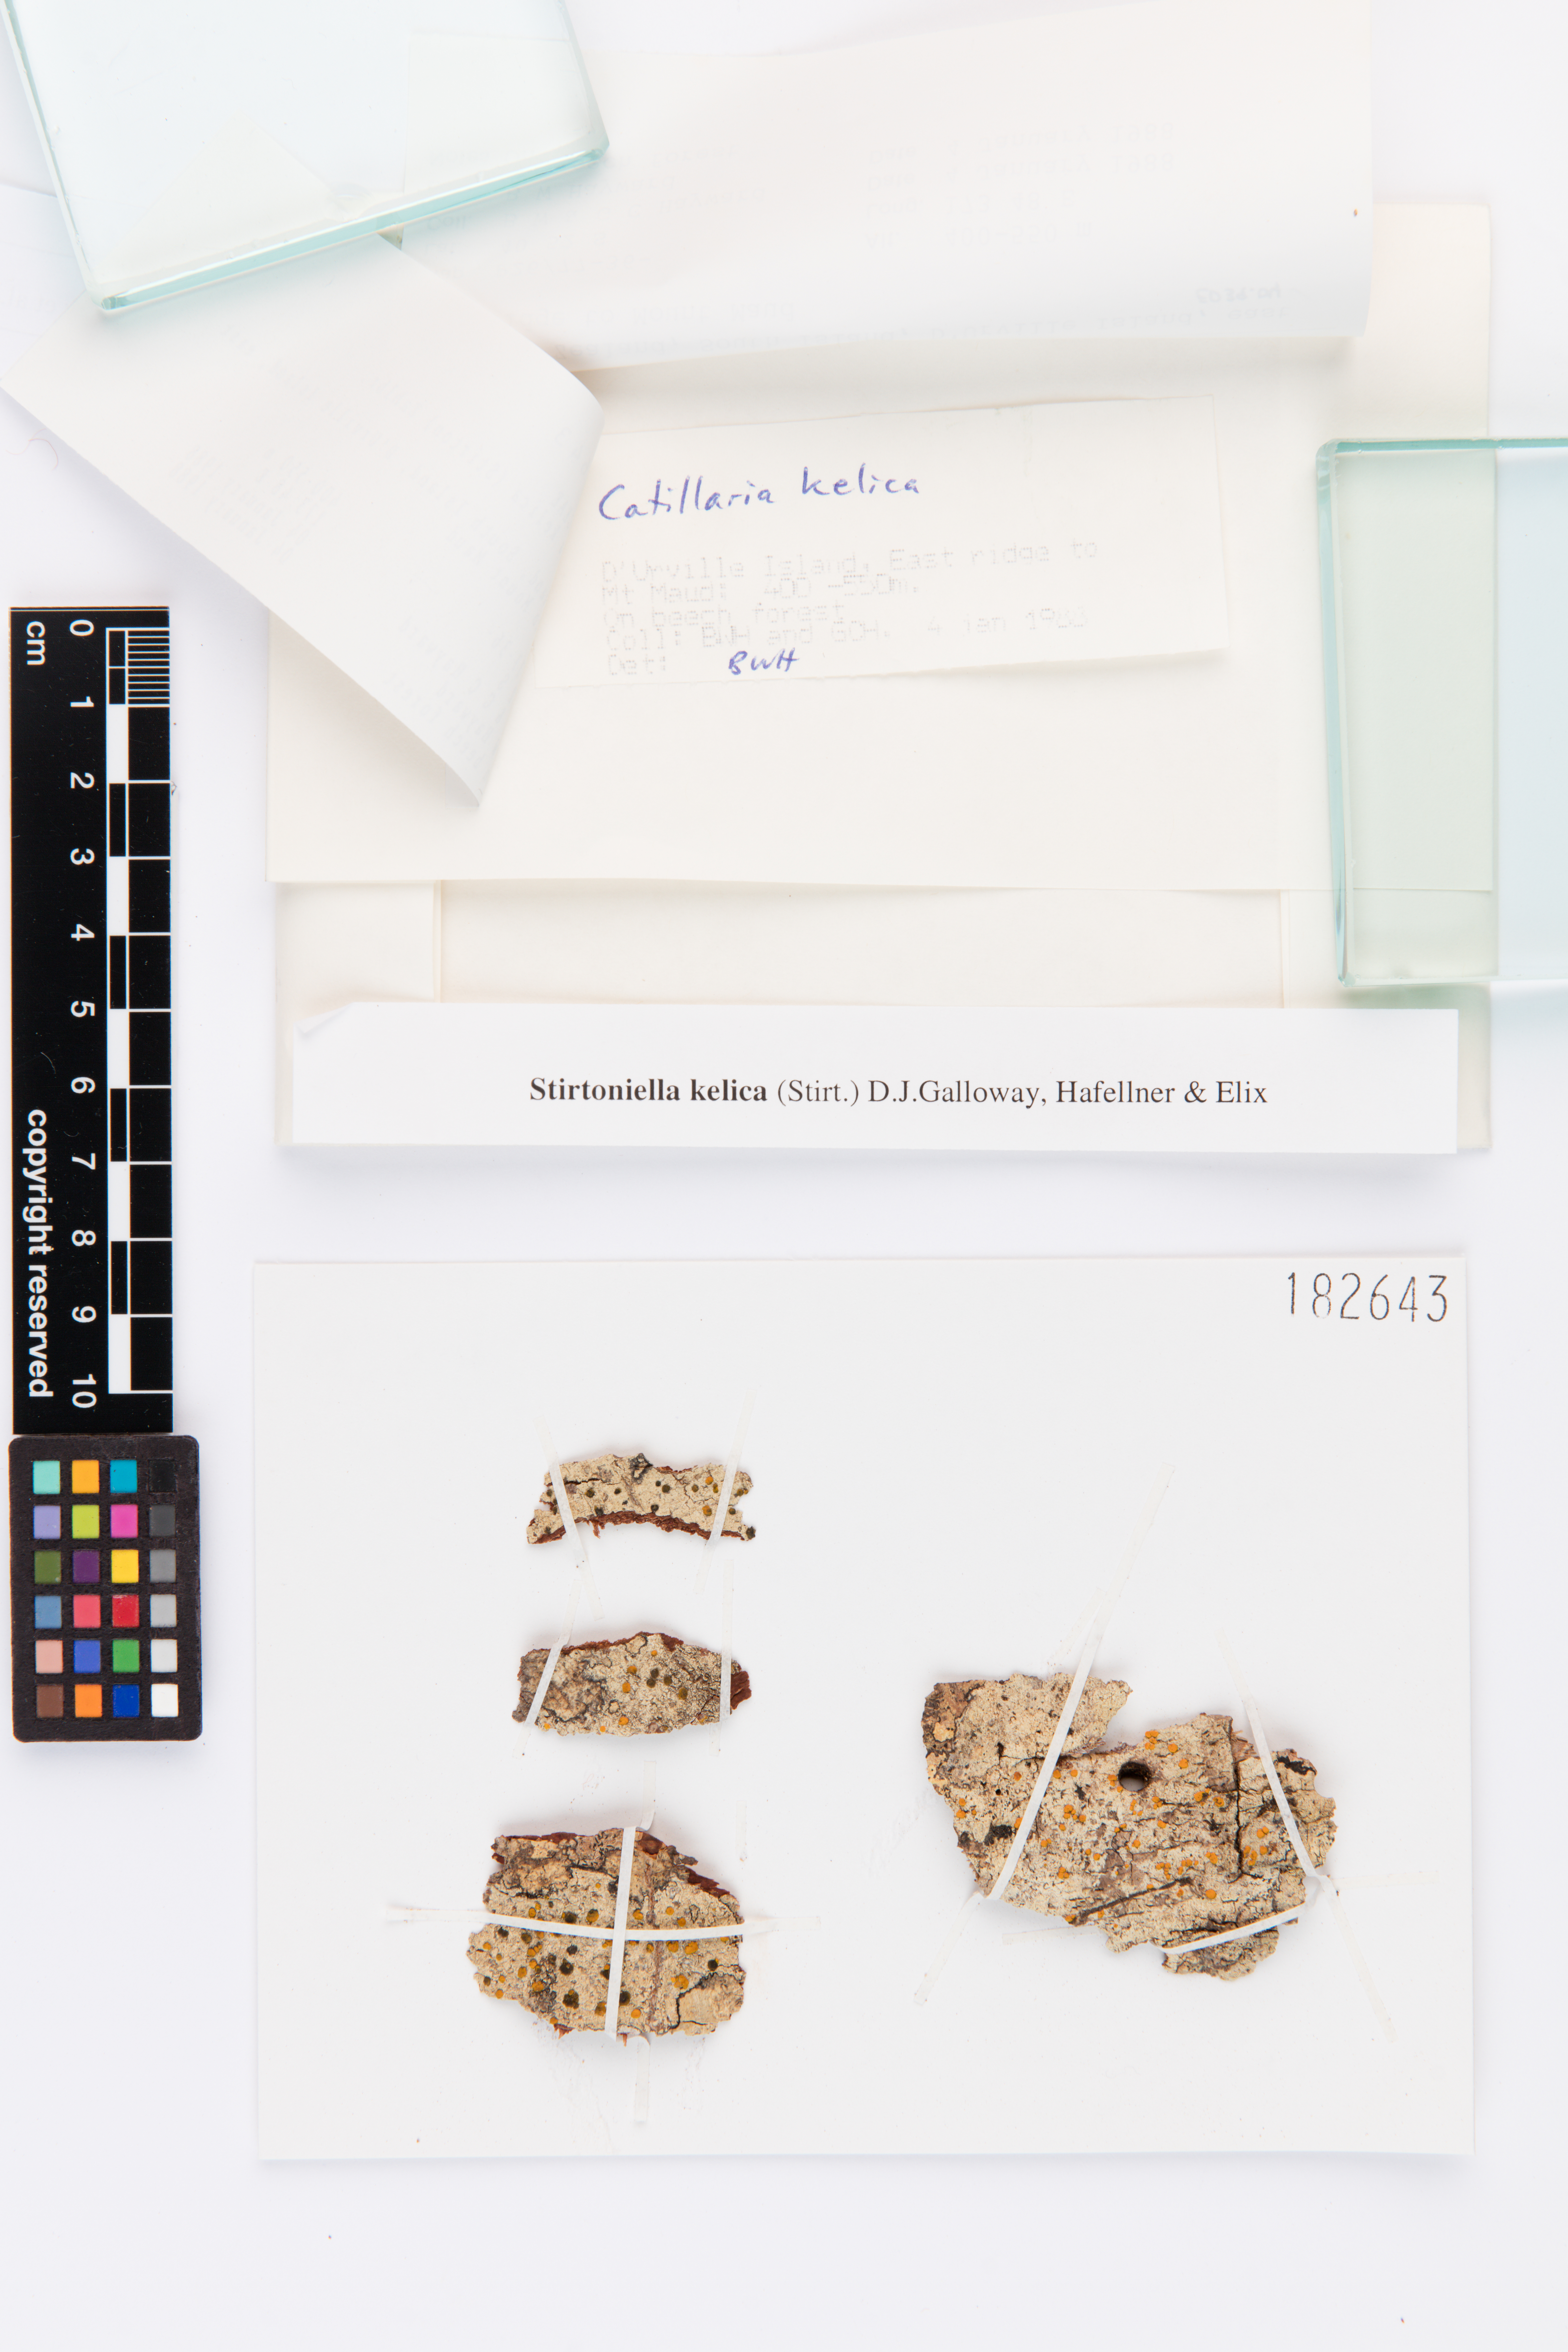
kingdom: Fungi
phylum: Ascomycota
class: Lecanoromycetes
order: Lecanorales
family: Ramalinaceae
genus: Stirtoniella
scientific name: Stirtoniella kelica
